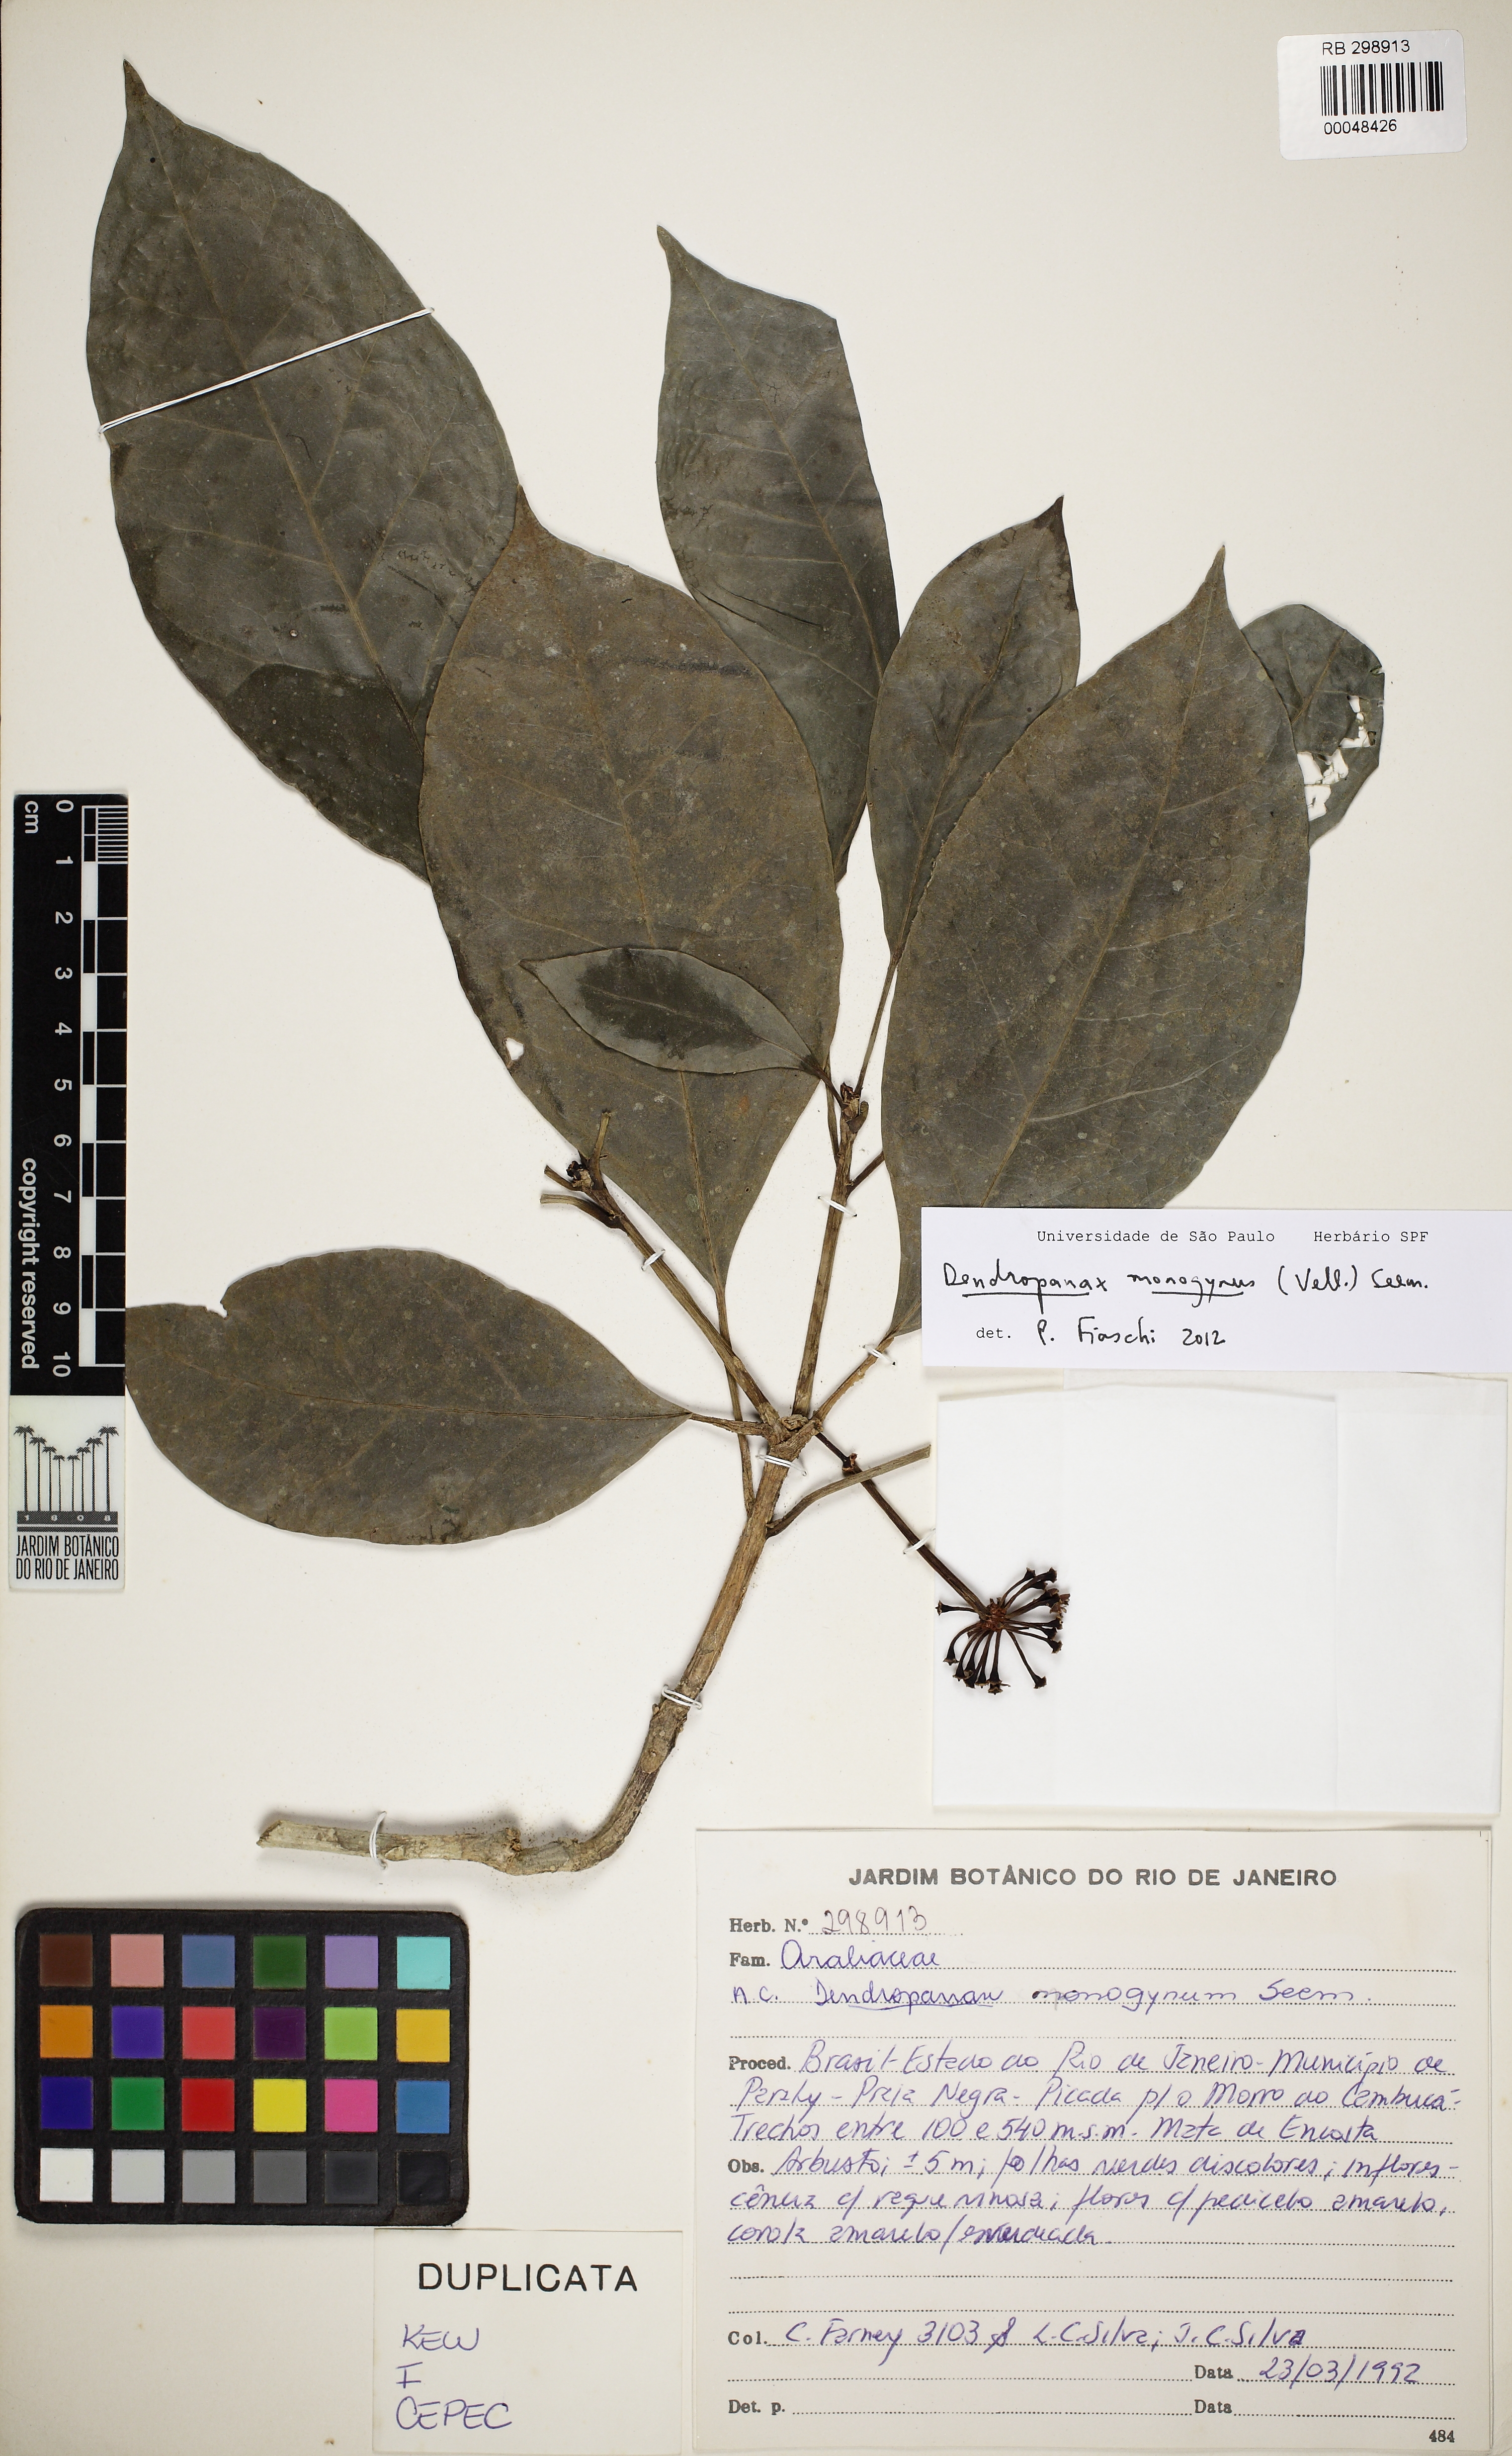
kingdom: Plantae
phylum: Tracheophyta
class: Magnoliopsida
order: Apiales
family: Araliaceae
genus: Dendropanax
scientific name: Dendropanax monogynus
